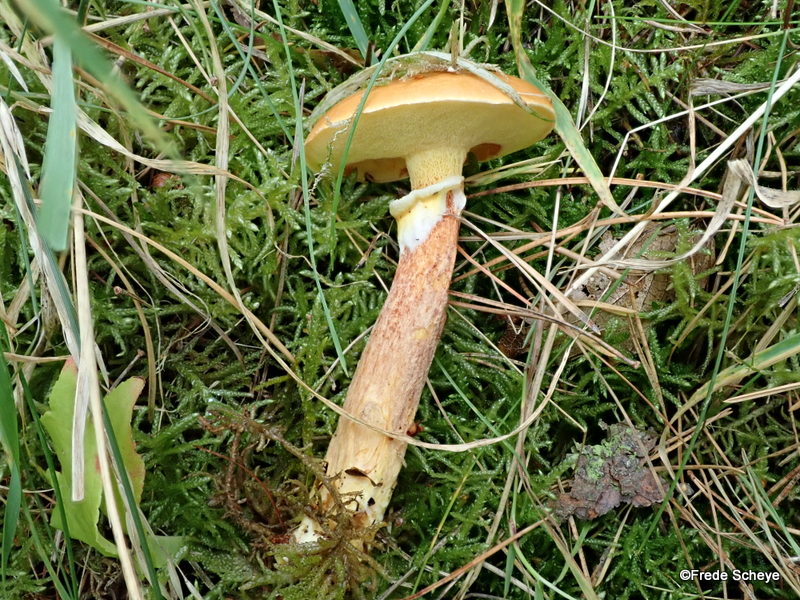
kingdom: Fungi
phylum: Basidiomycota
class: Agaricomycetes
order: Boletales
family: Suillaceae
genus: Suillus
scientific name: Suillus grevillei
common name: lærke-slimrørhat
